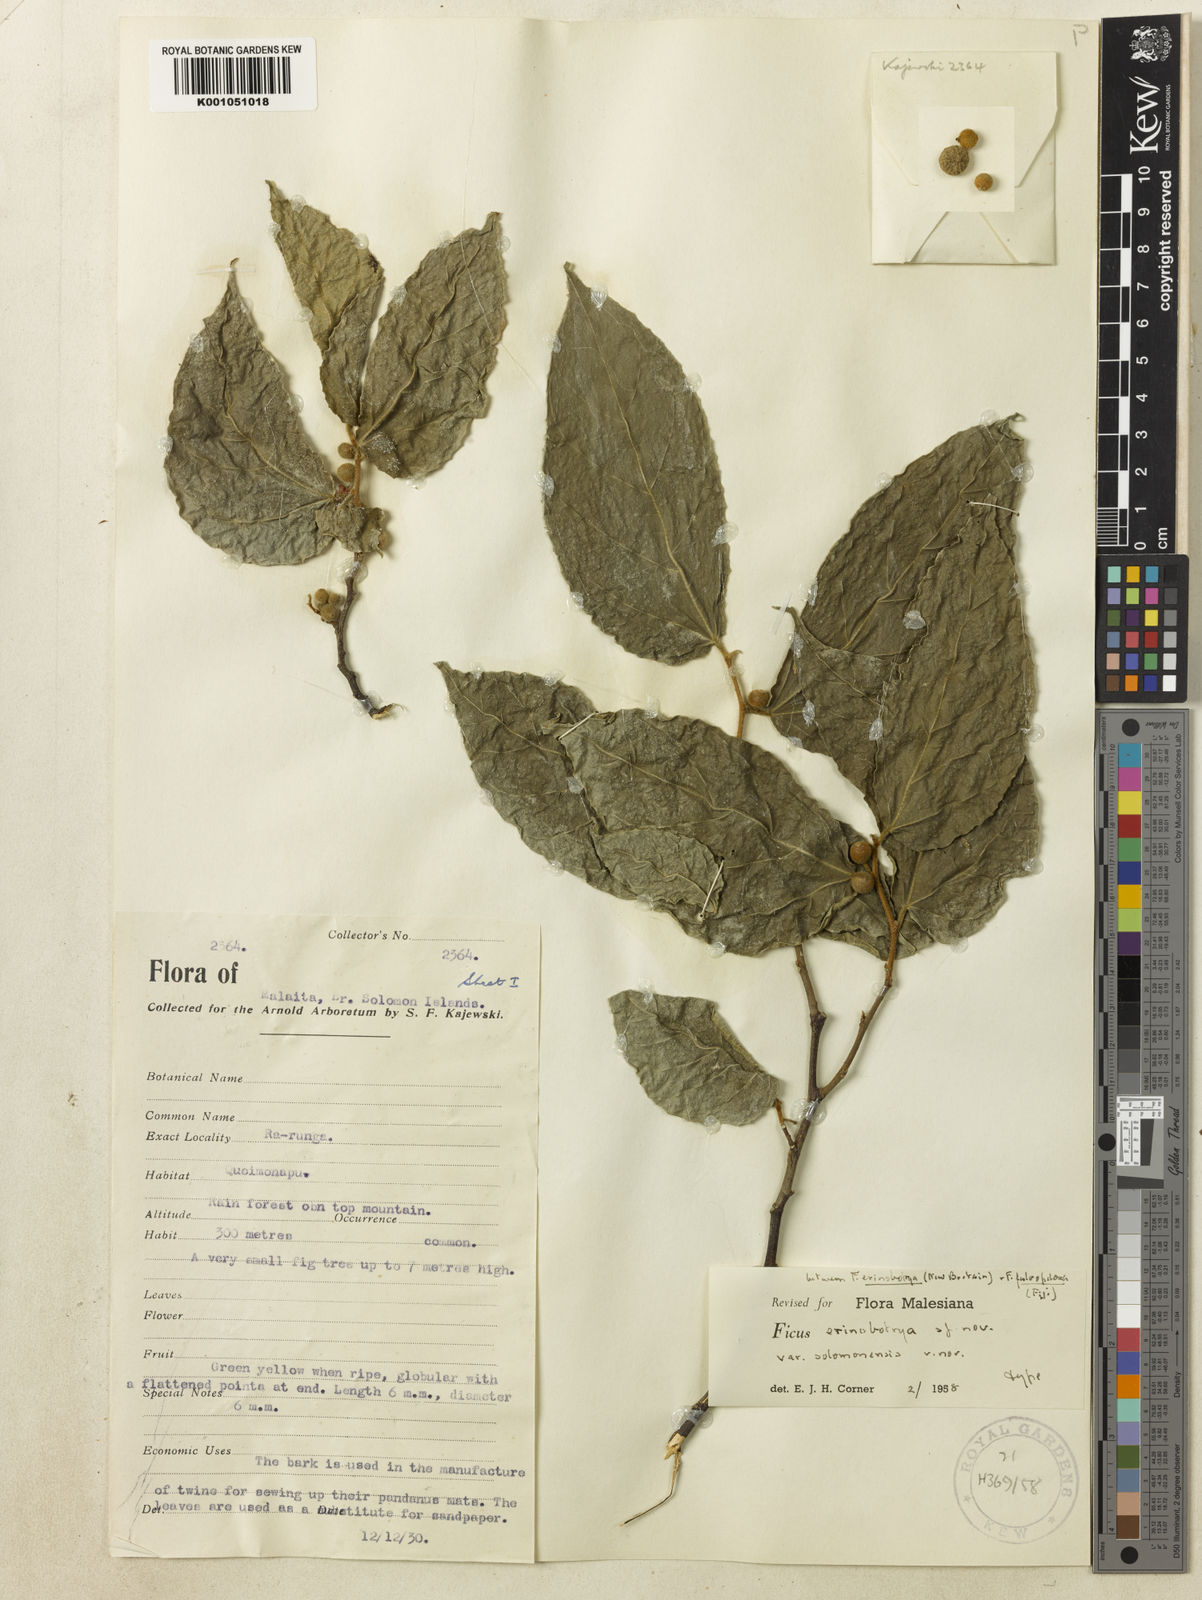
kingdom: Plantae
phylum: Tracheophyta
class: Magnoliopsida
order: Rosales
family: Moraceae
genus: Ficus
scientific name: Ficus erinobotrya
